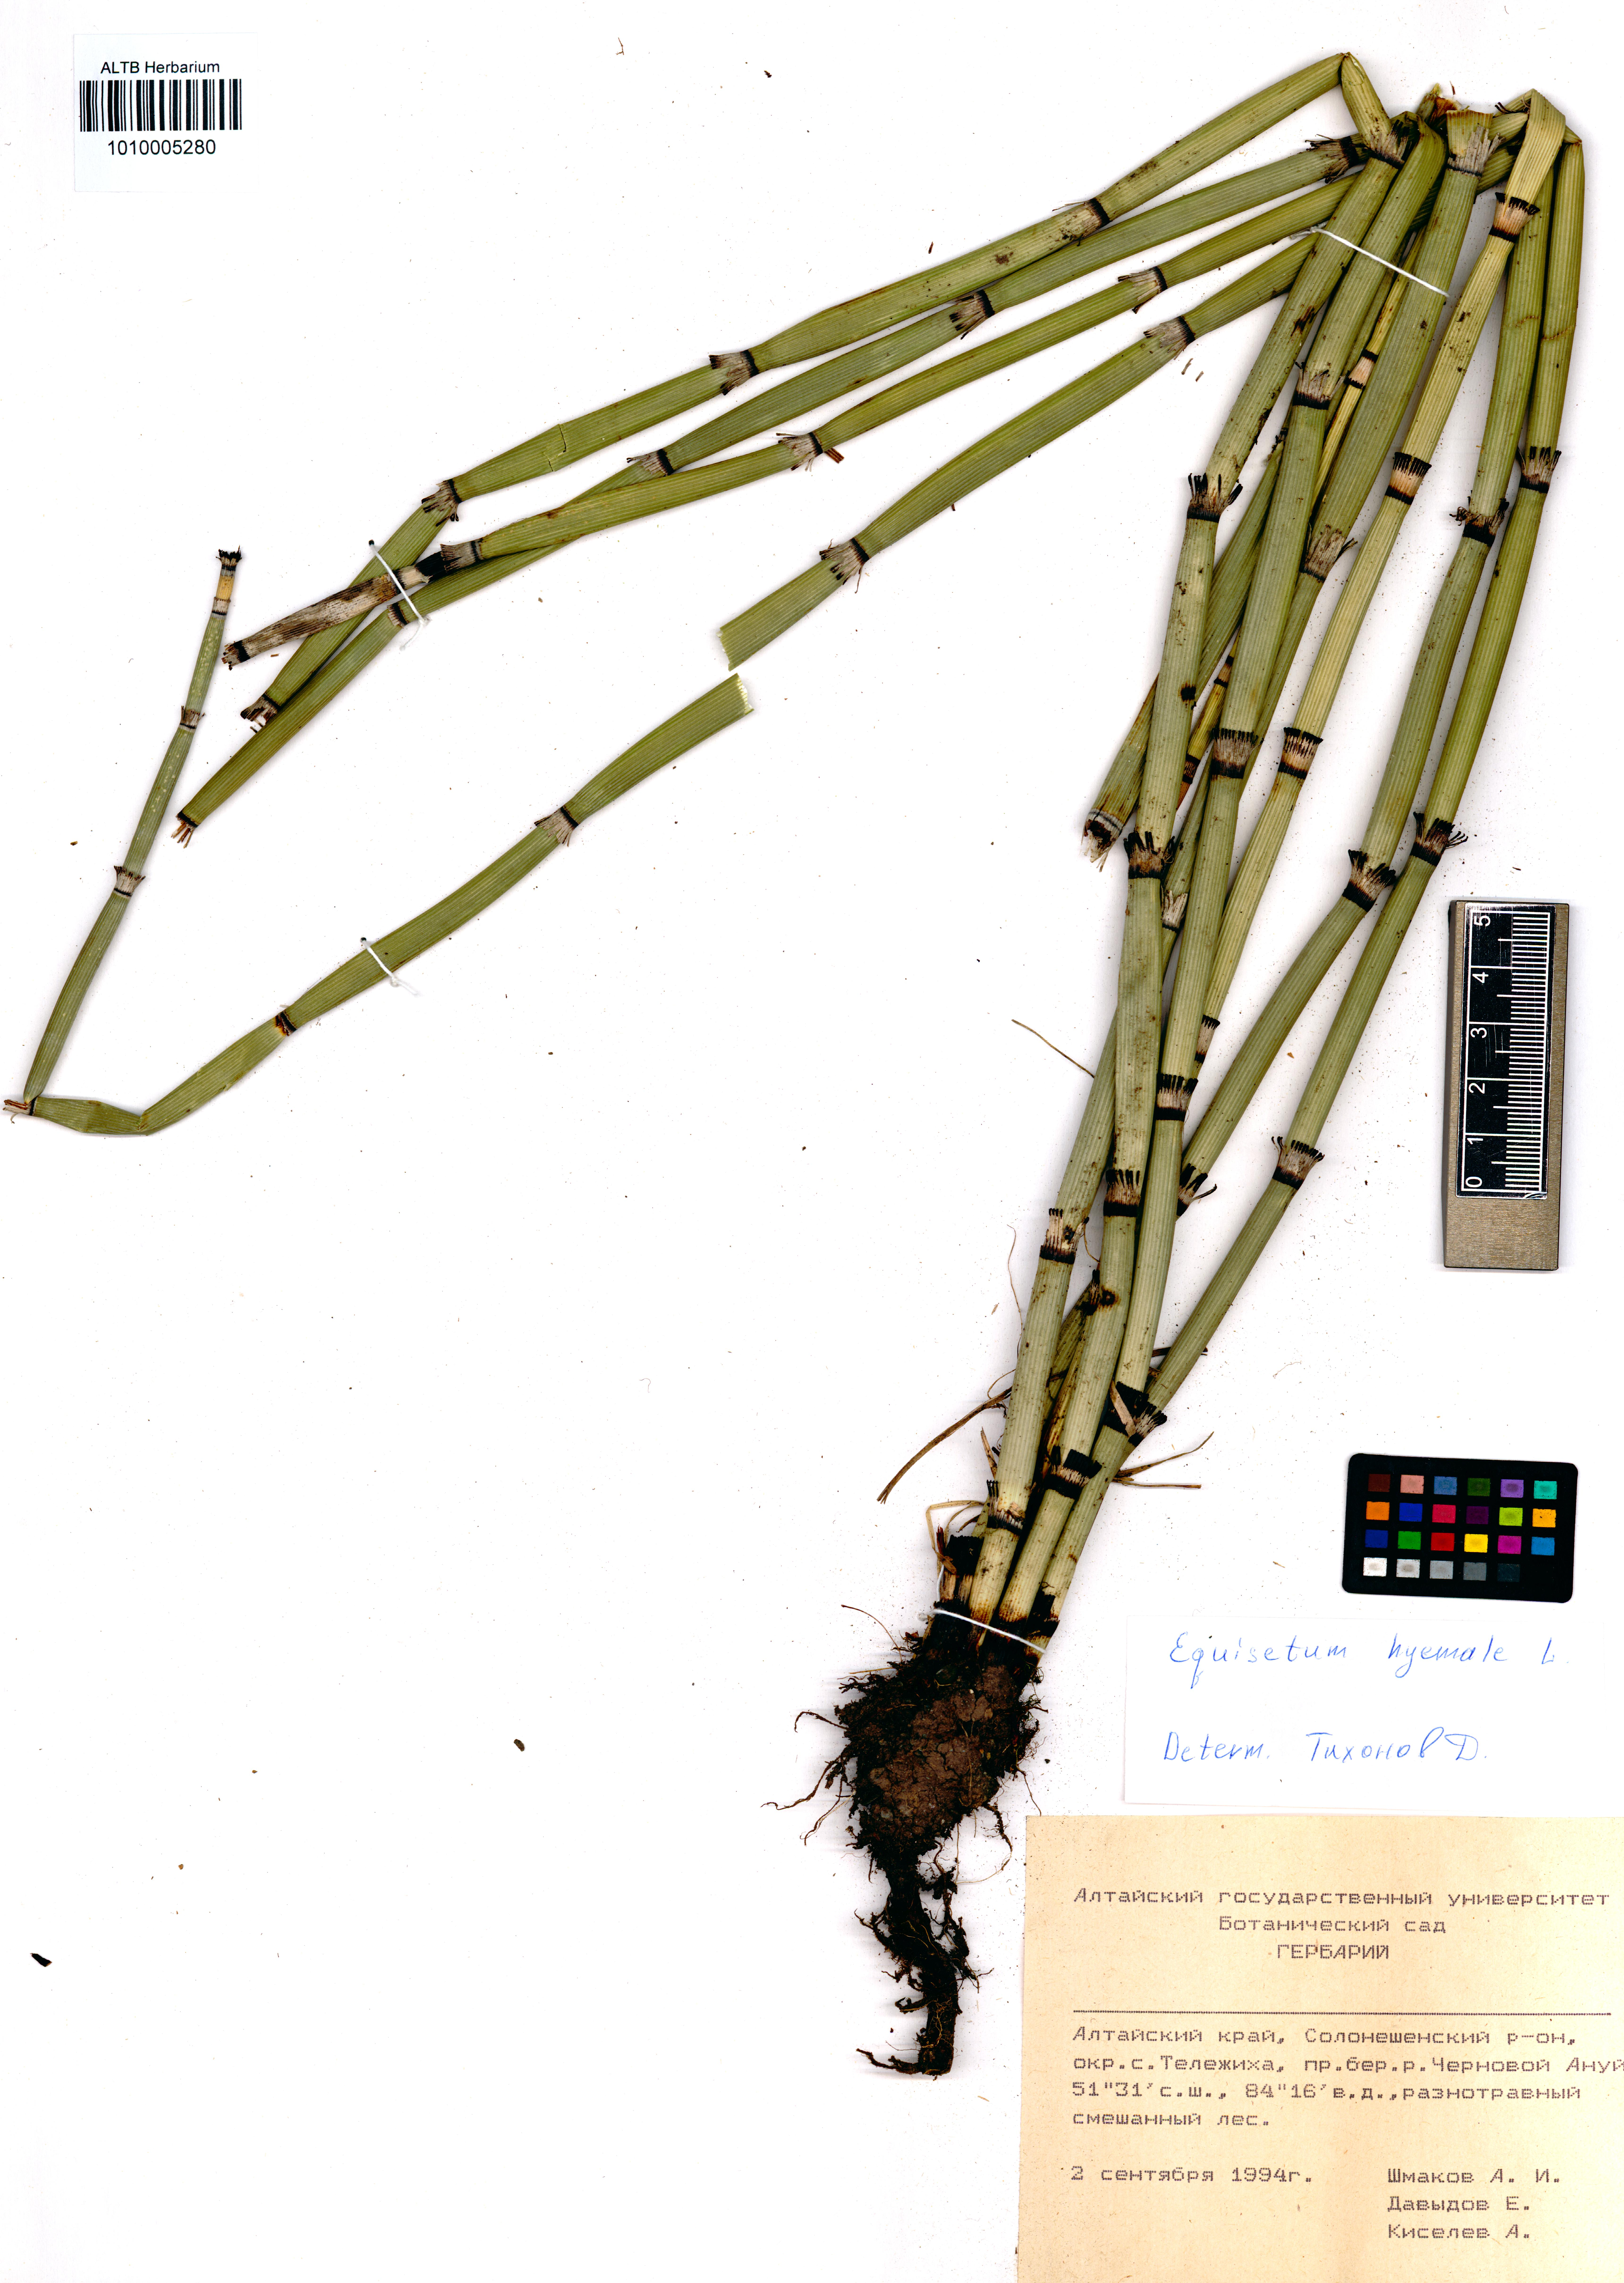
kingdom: Plantae
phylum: Tracheophyta
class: Polypodiopsida
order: Equisetales
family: Equisetaceae
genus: Equisetum
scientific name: Equisetum hyemale
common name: Rough horsetail
